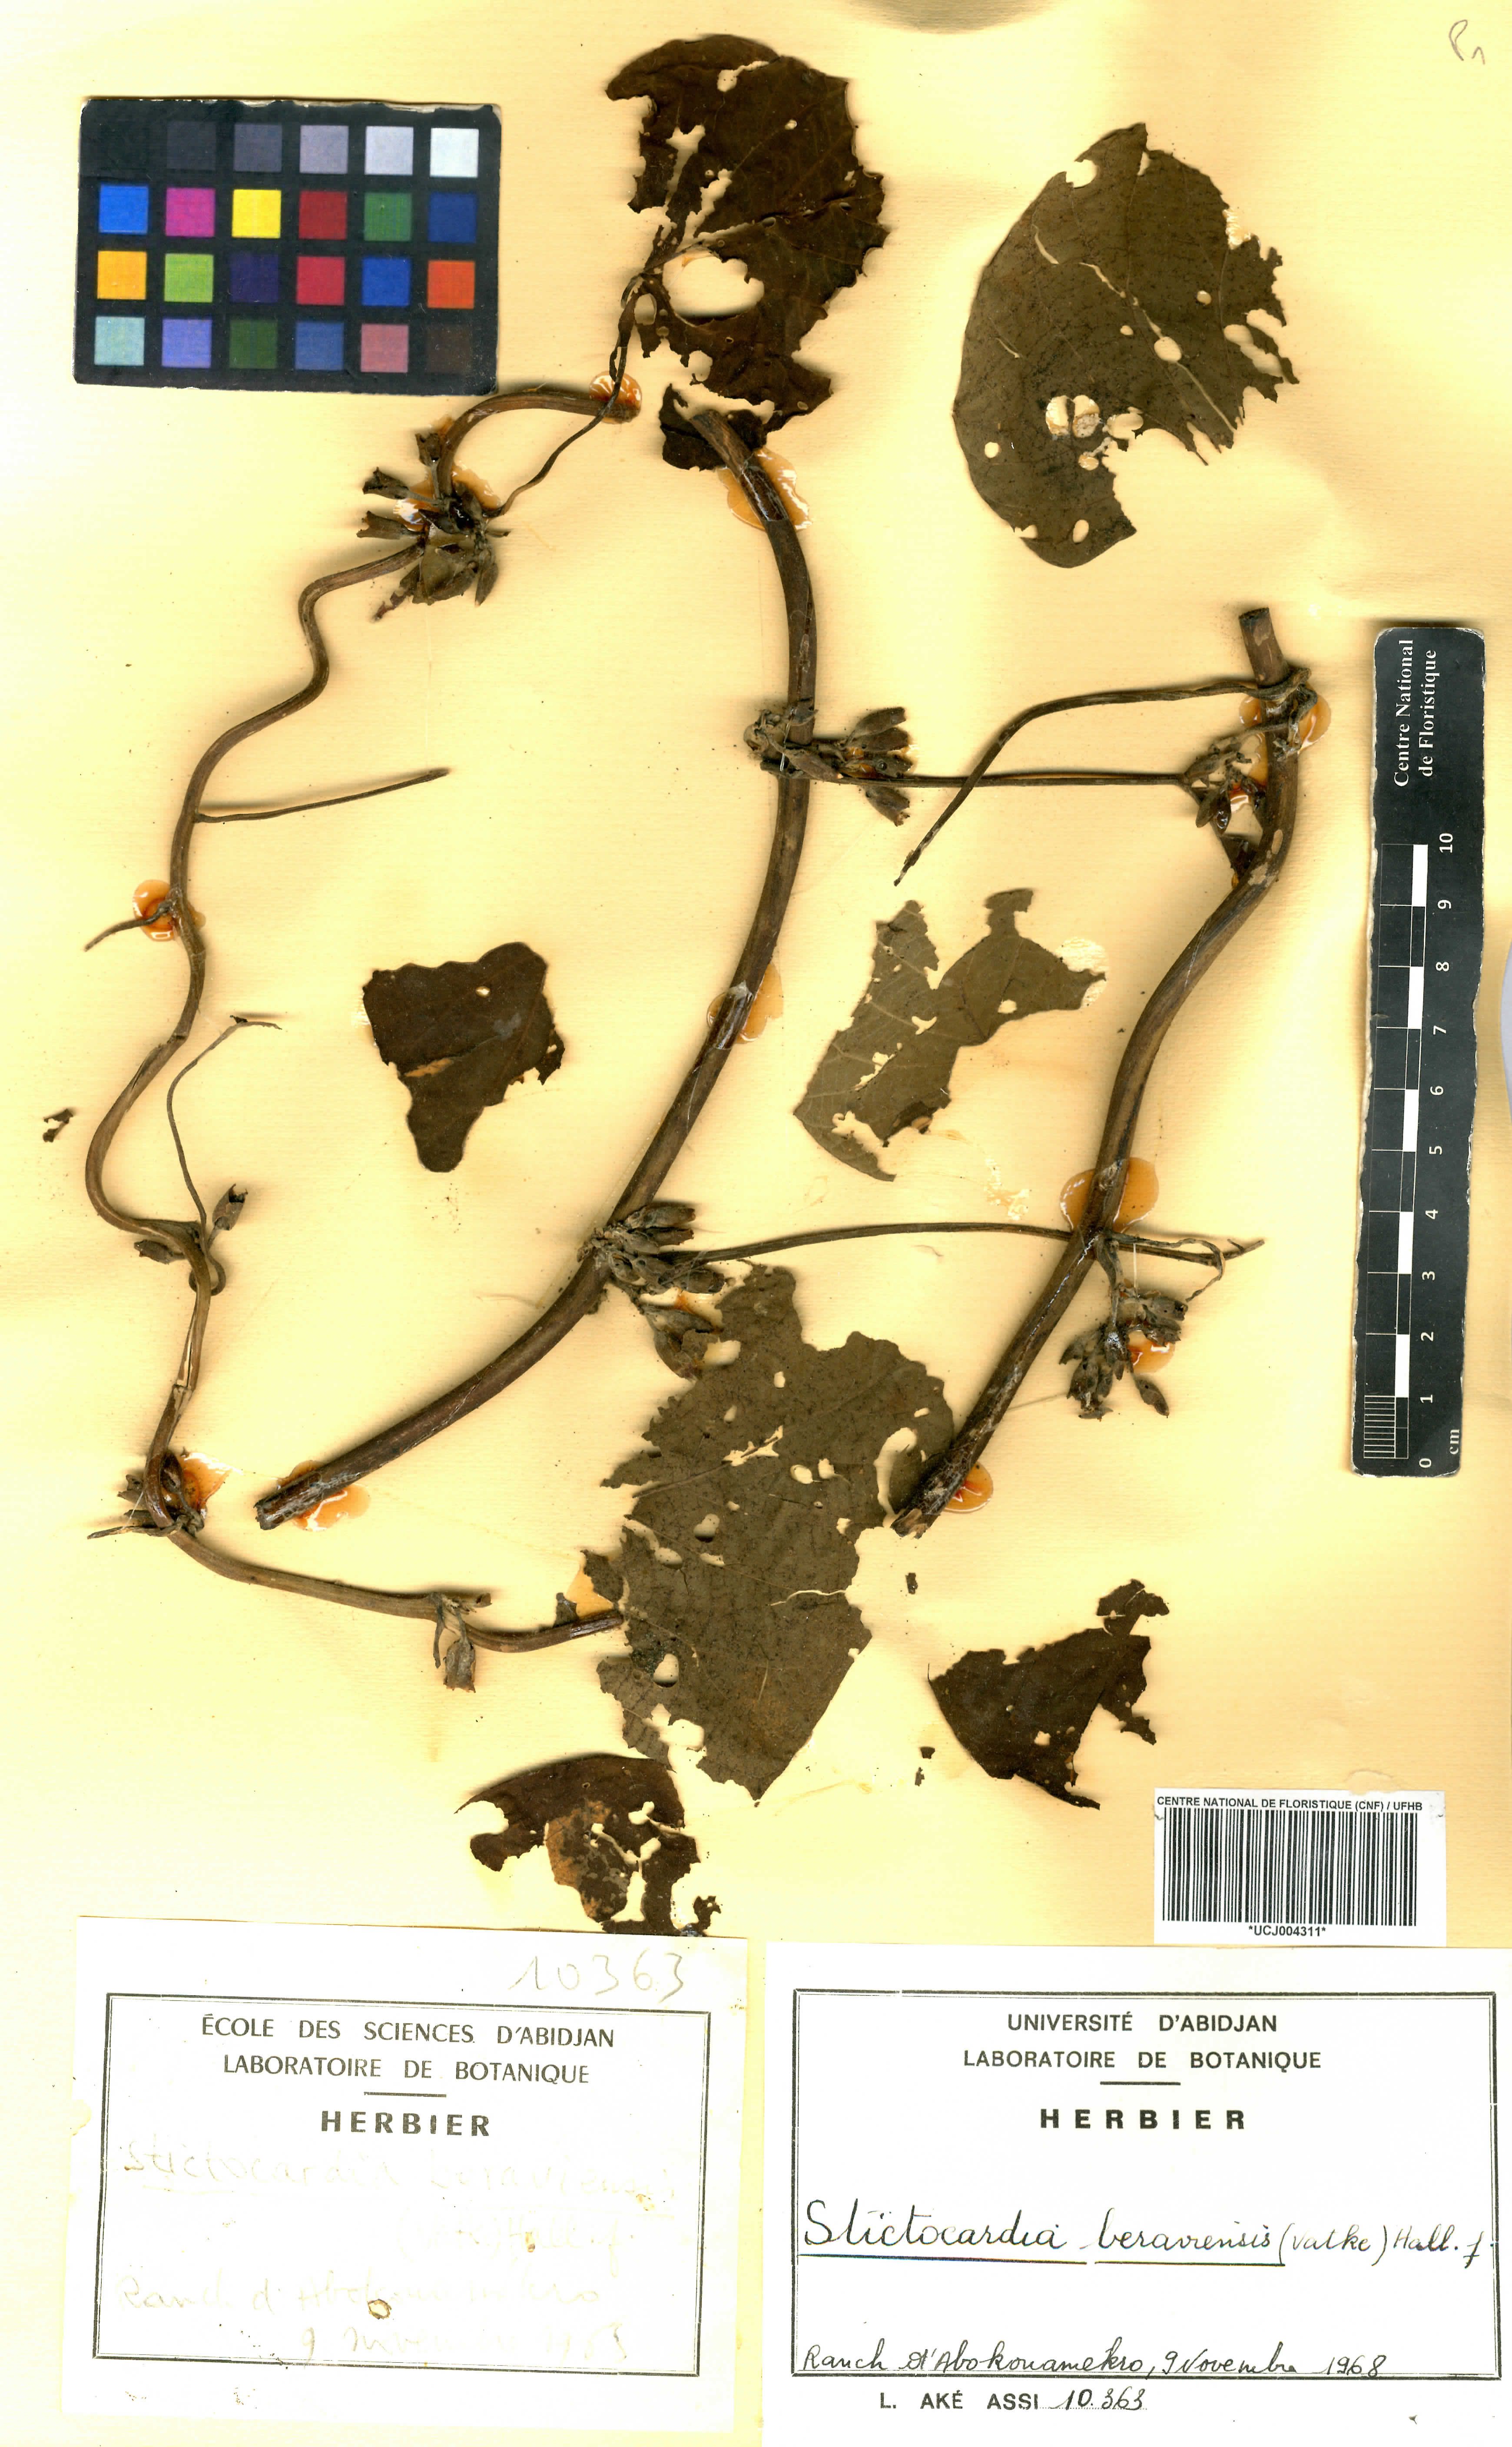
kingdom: Plantae
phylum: Tracheophyta
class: Magnoliopsida
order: Solanales
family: Convolvulaceae
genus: Stictocardia
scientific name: Stictocardia beraviensis
